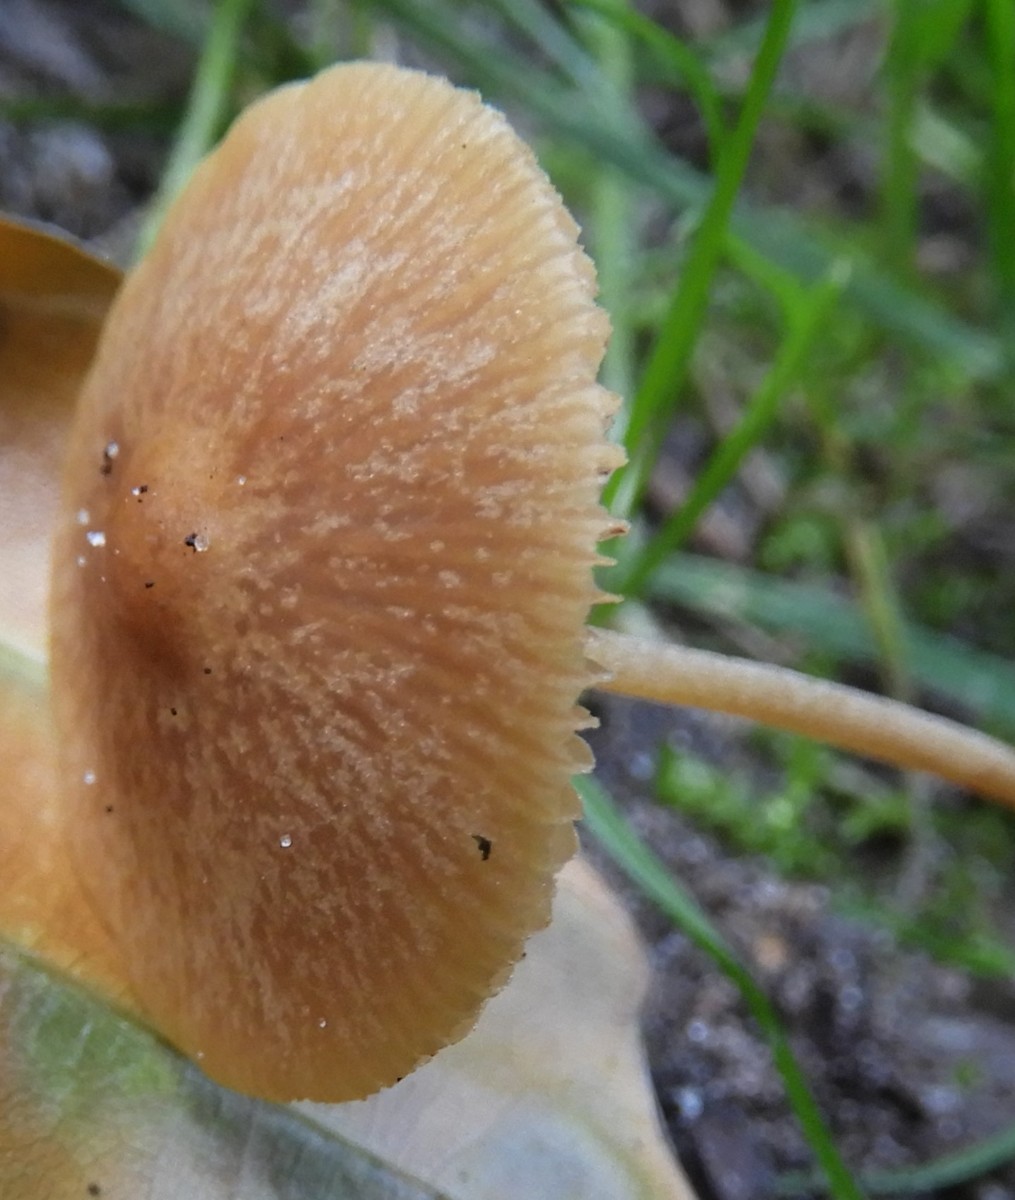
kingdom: Fungi
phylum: Basidiomycota
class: Agaricomycetes
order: Agaricales
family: Tubariaceae
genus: Tubaria
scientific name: Tubaria furfuracea
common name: kliddet fnughat
